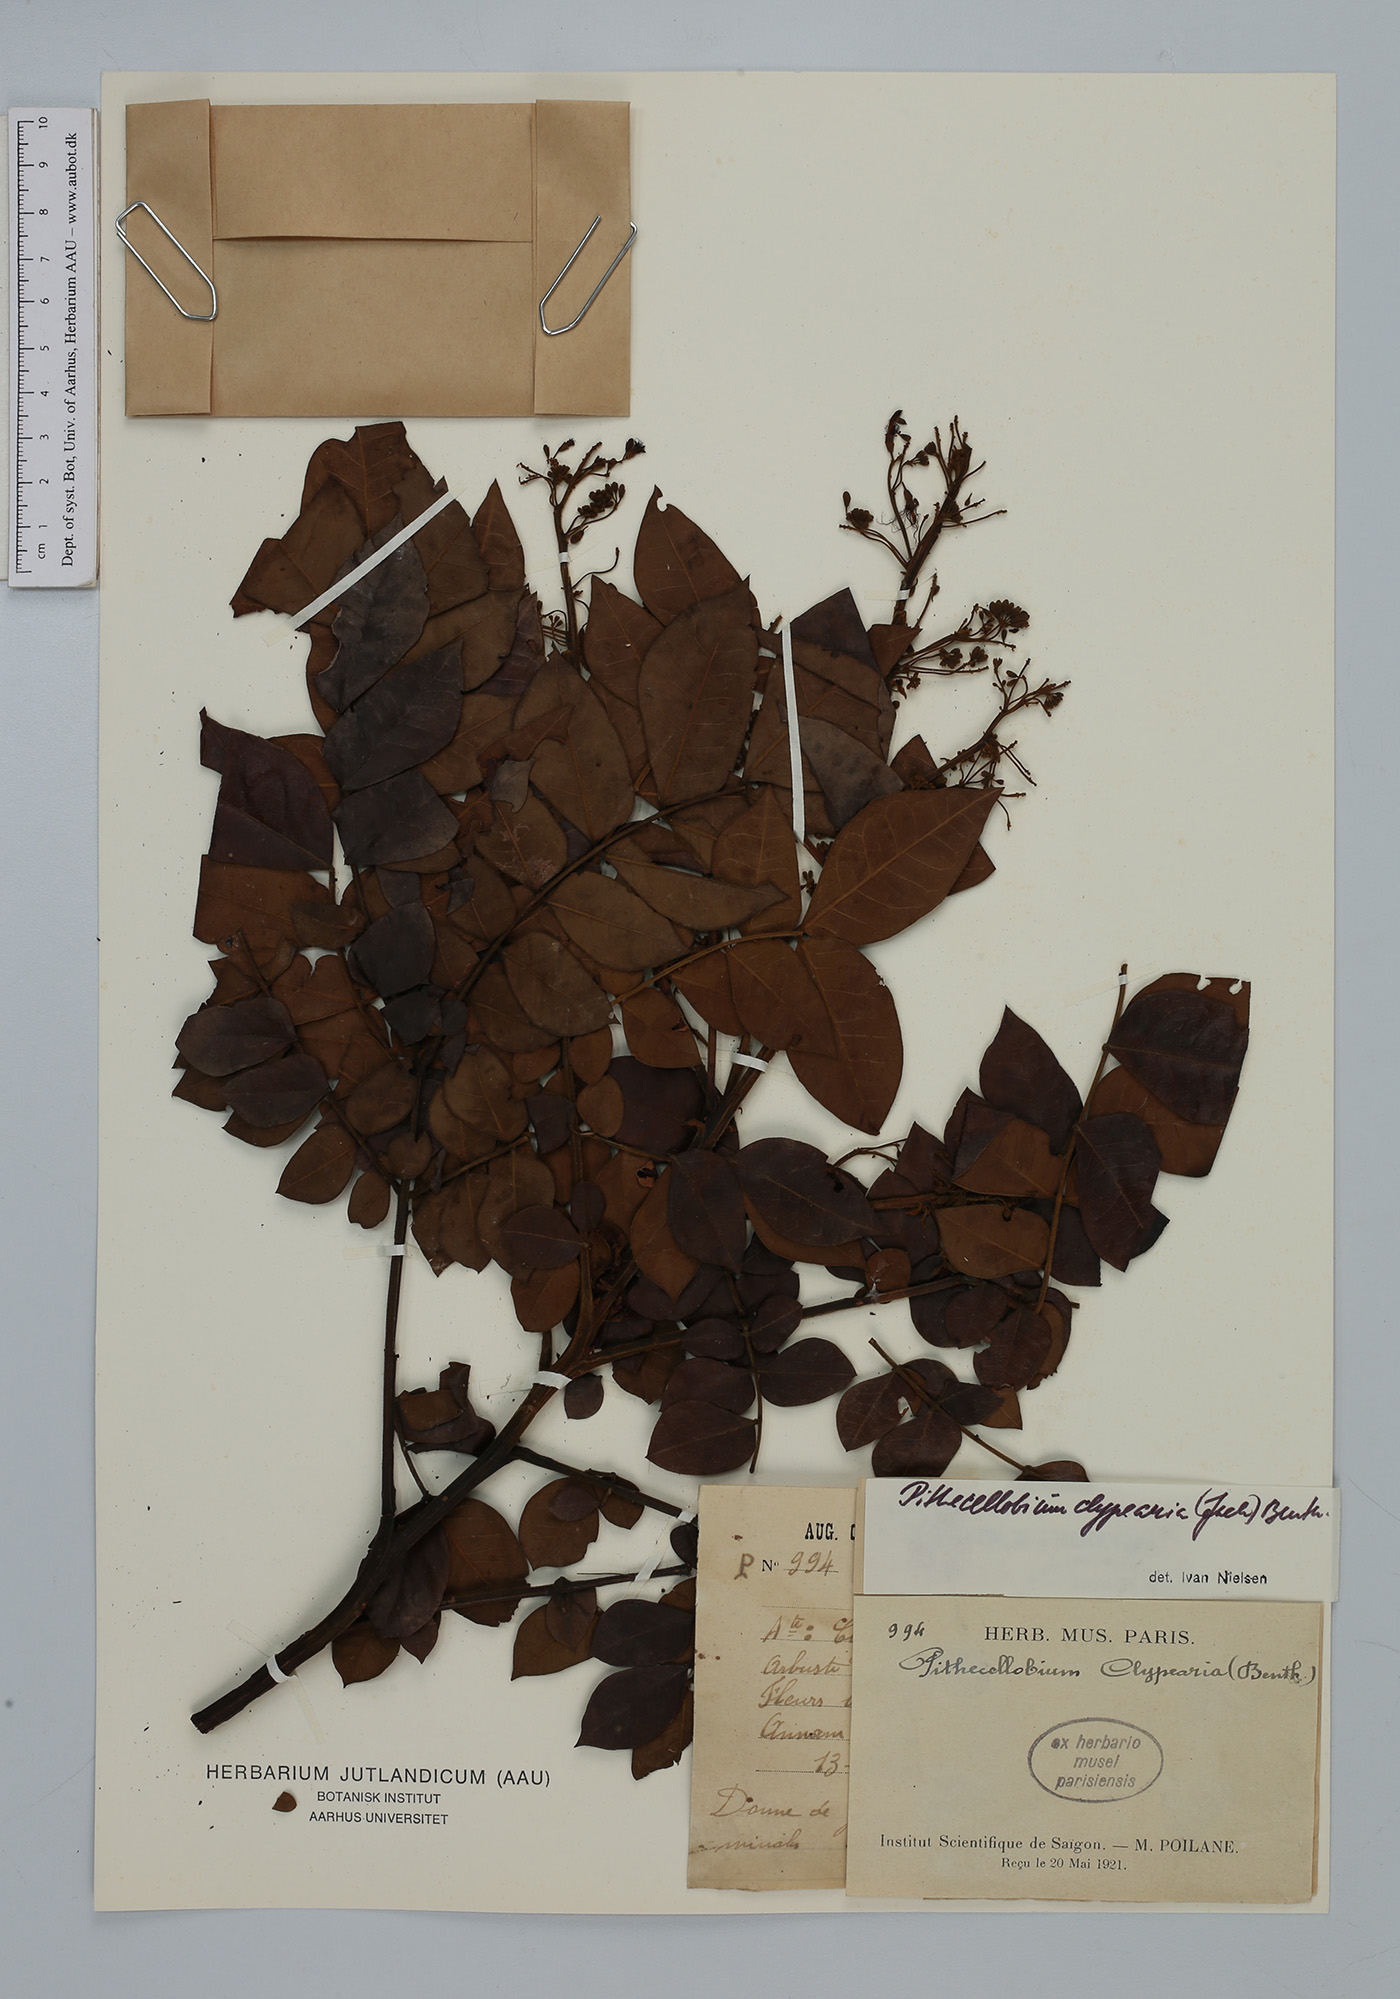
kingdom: Plantae
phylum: Tracheophyta
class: Magnoliopsida
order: Fabales
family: Fabaceae
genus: Archidendron
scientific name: Archidendron clypearia
